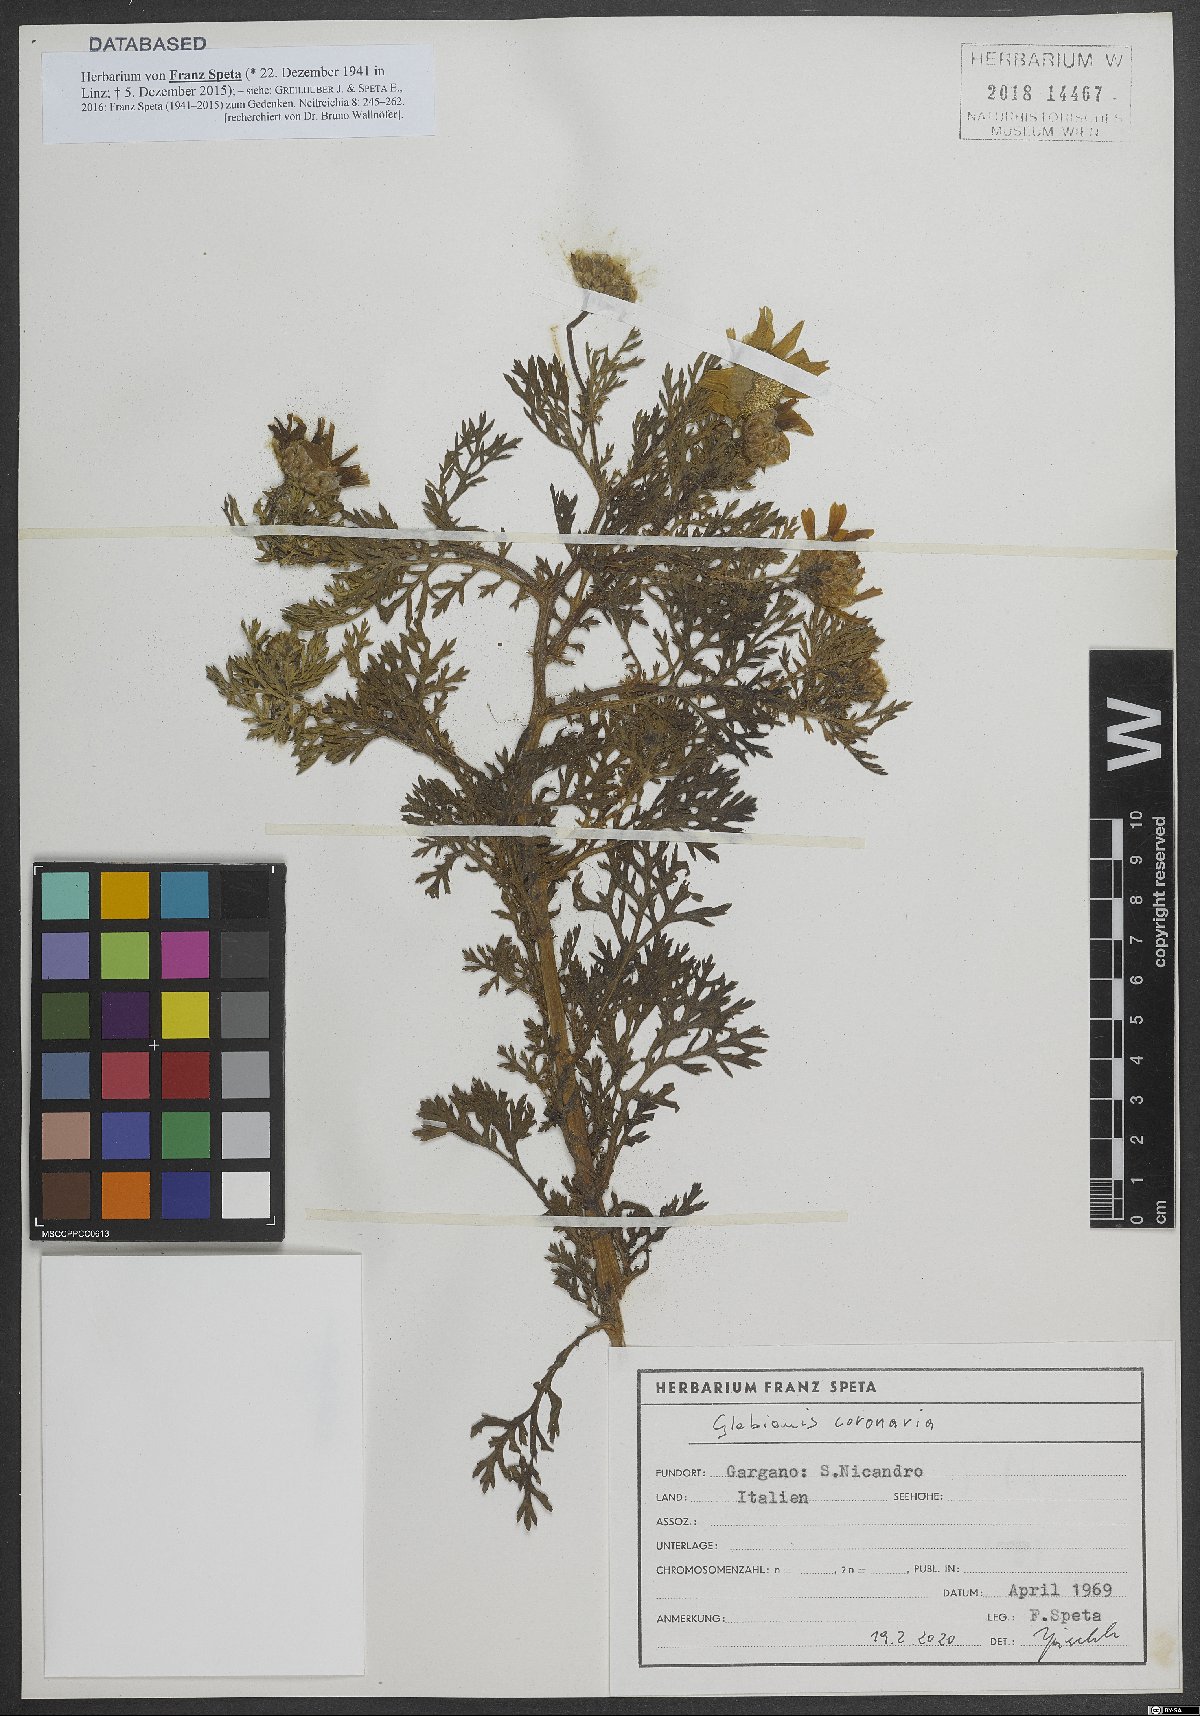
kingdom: Plantae
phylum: Tracheophyta
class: Magnoliopsida
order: Asterales
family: Asteraceae
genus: Glebionis
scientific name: Glebionis coronaria
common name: Crowndaisy
